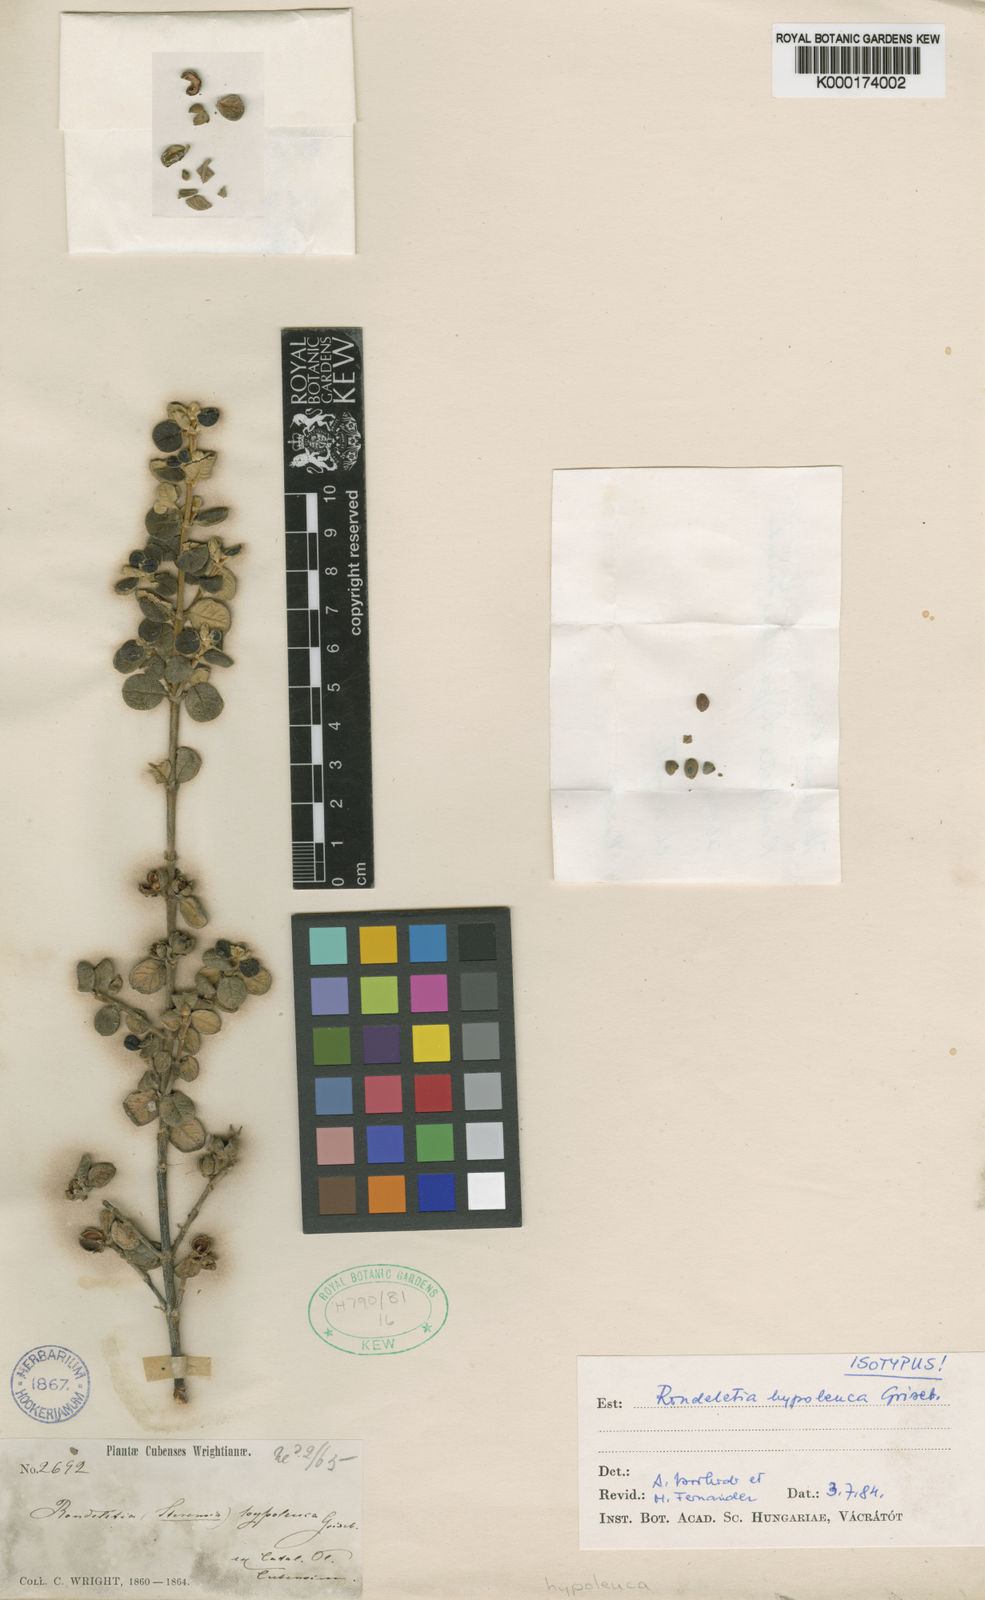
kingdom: Plantae
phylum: Tracheophyta
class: Magnoliopsida
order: Gentianales
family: Rubiaceae
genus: Rondeletia
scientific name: Rondeletia hypoleuca
